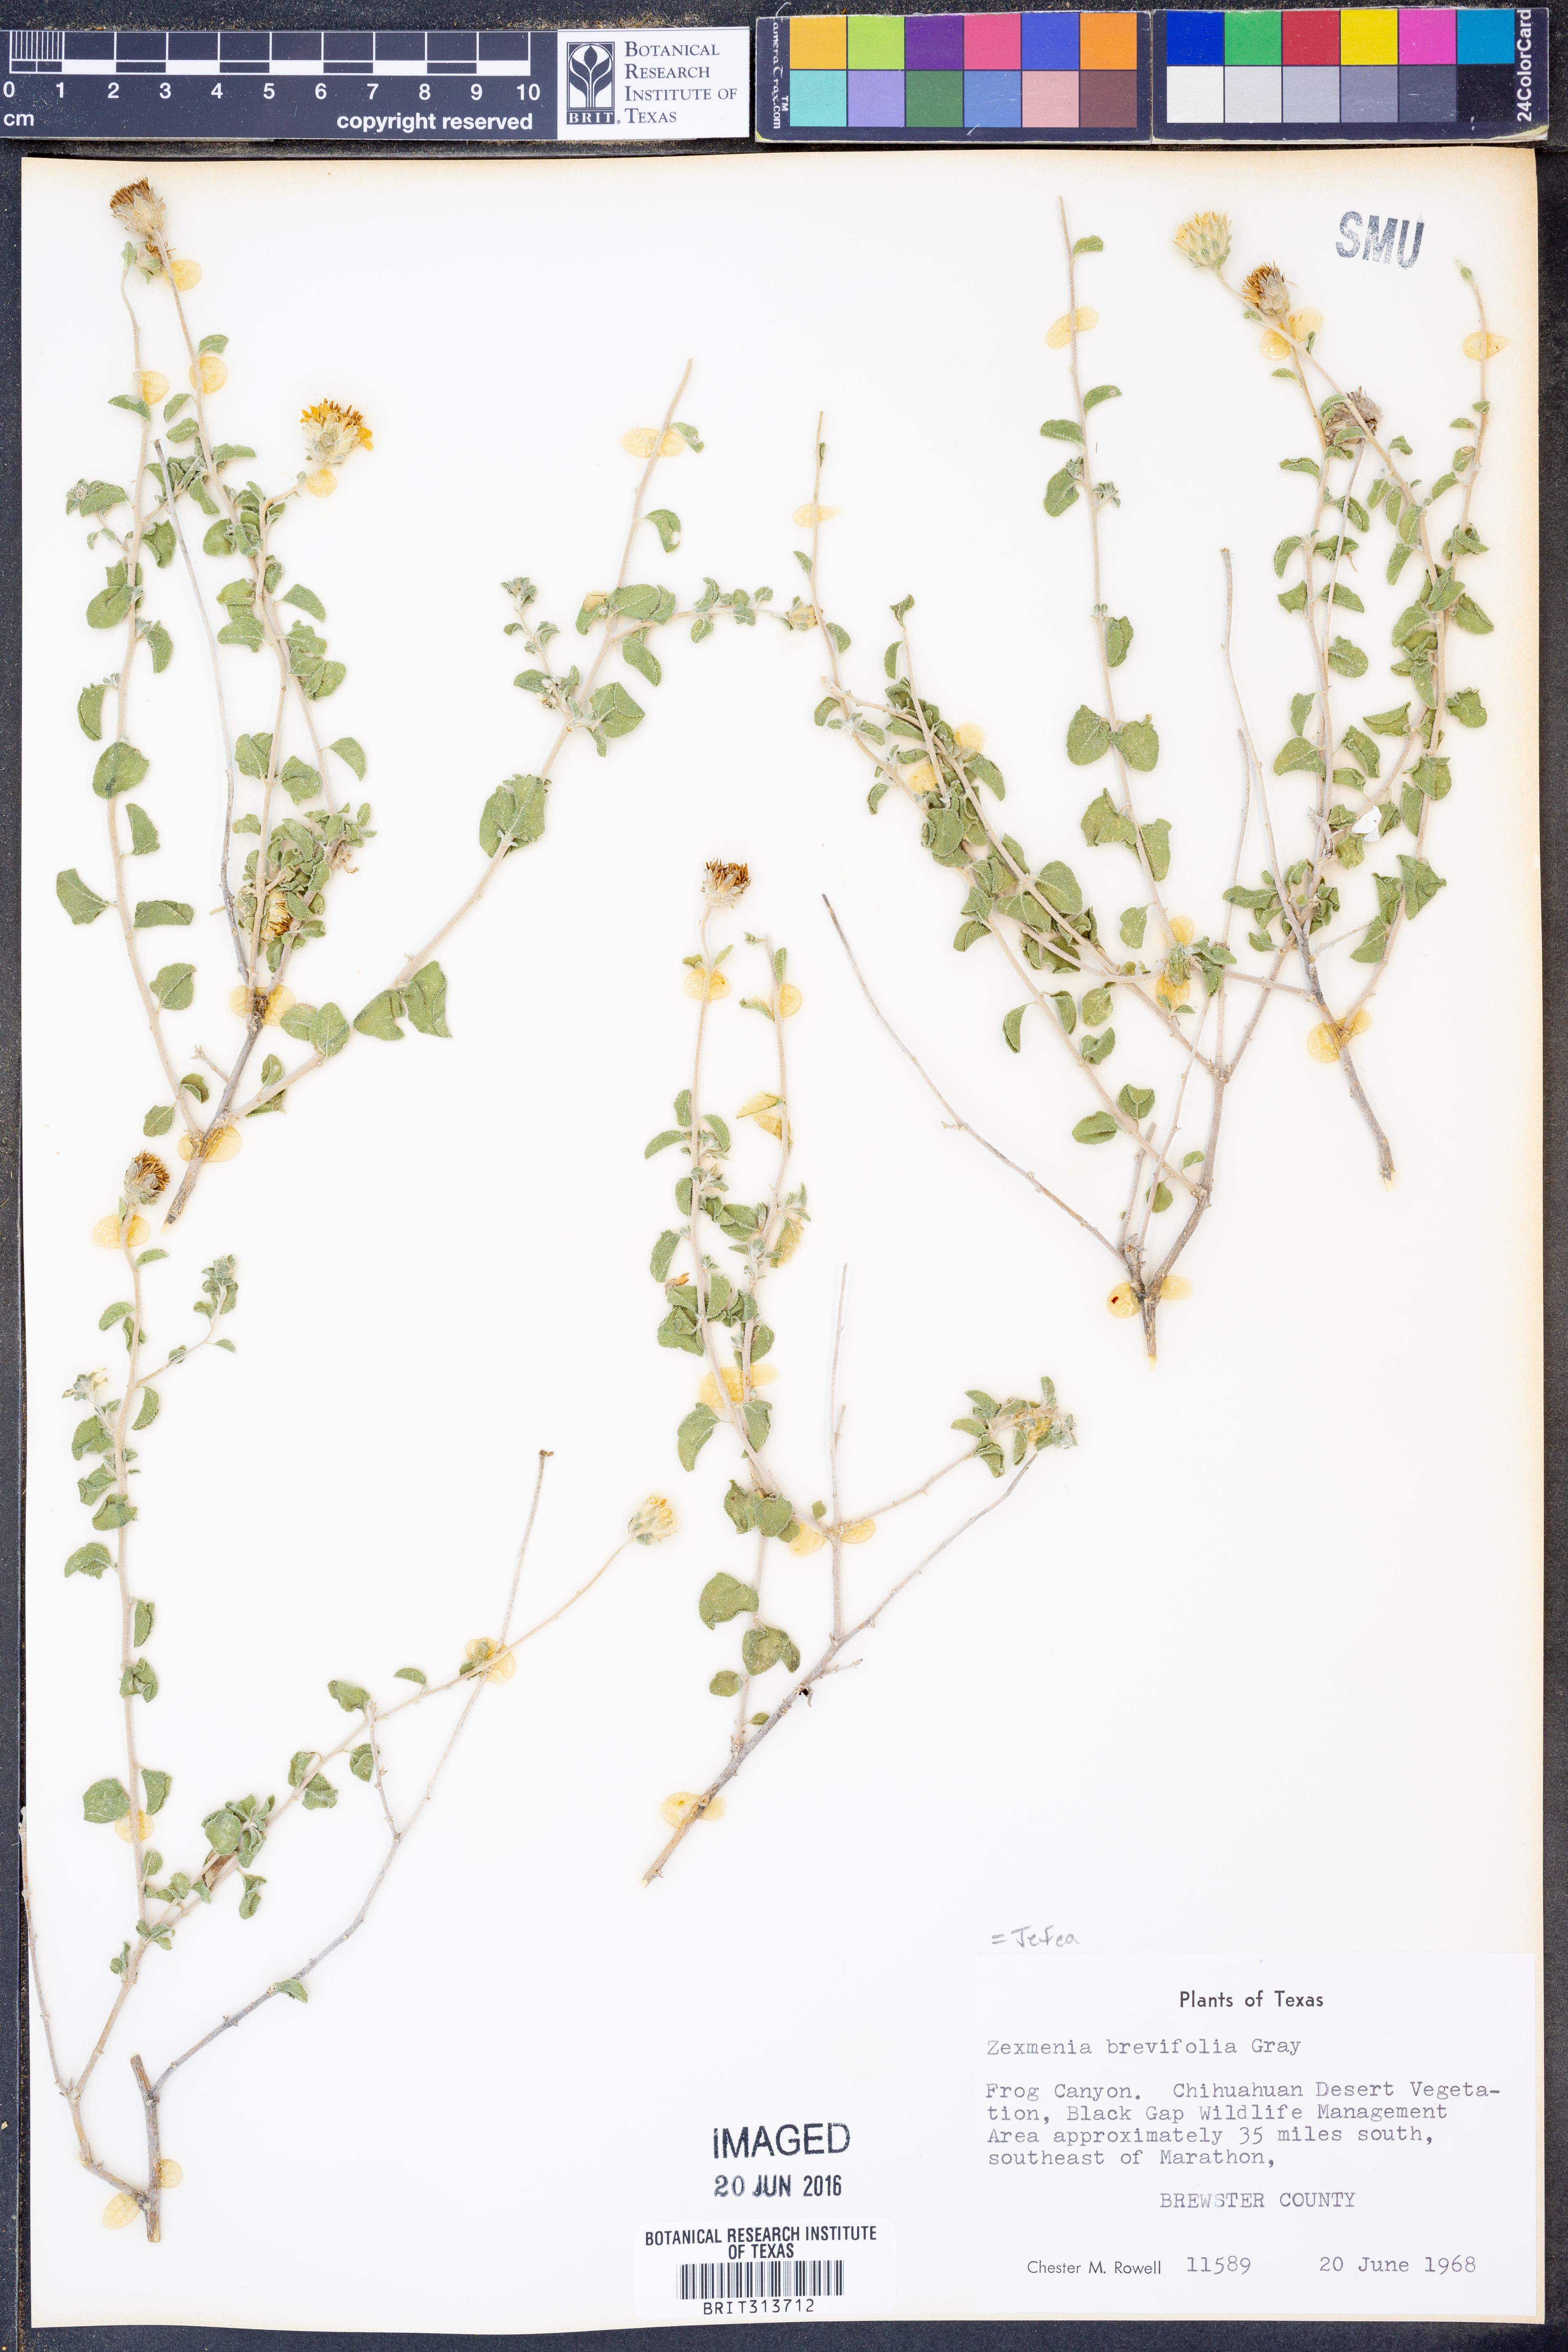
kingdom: Plantae
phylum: Tracheophyta
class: Magnoliopsida
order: Asterales
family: Asteraceae
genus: Jefea
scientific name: Jefea brevifolia
